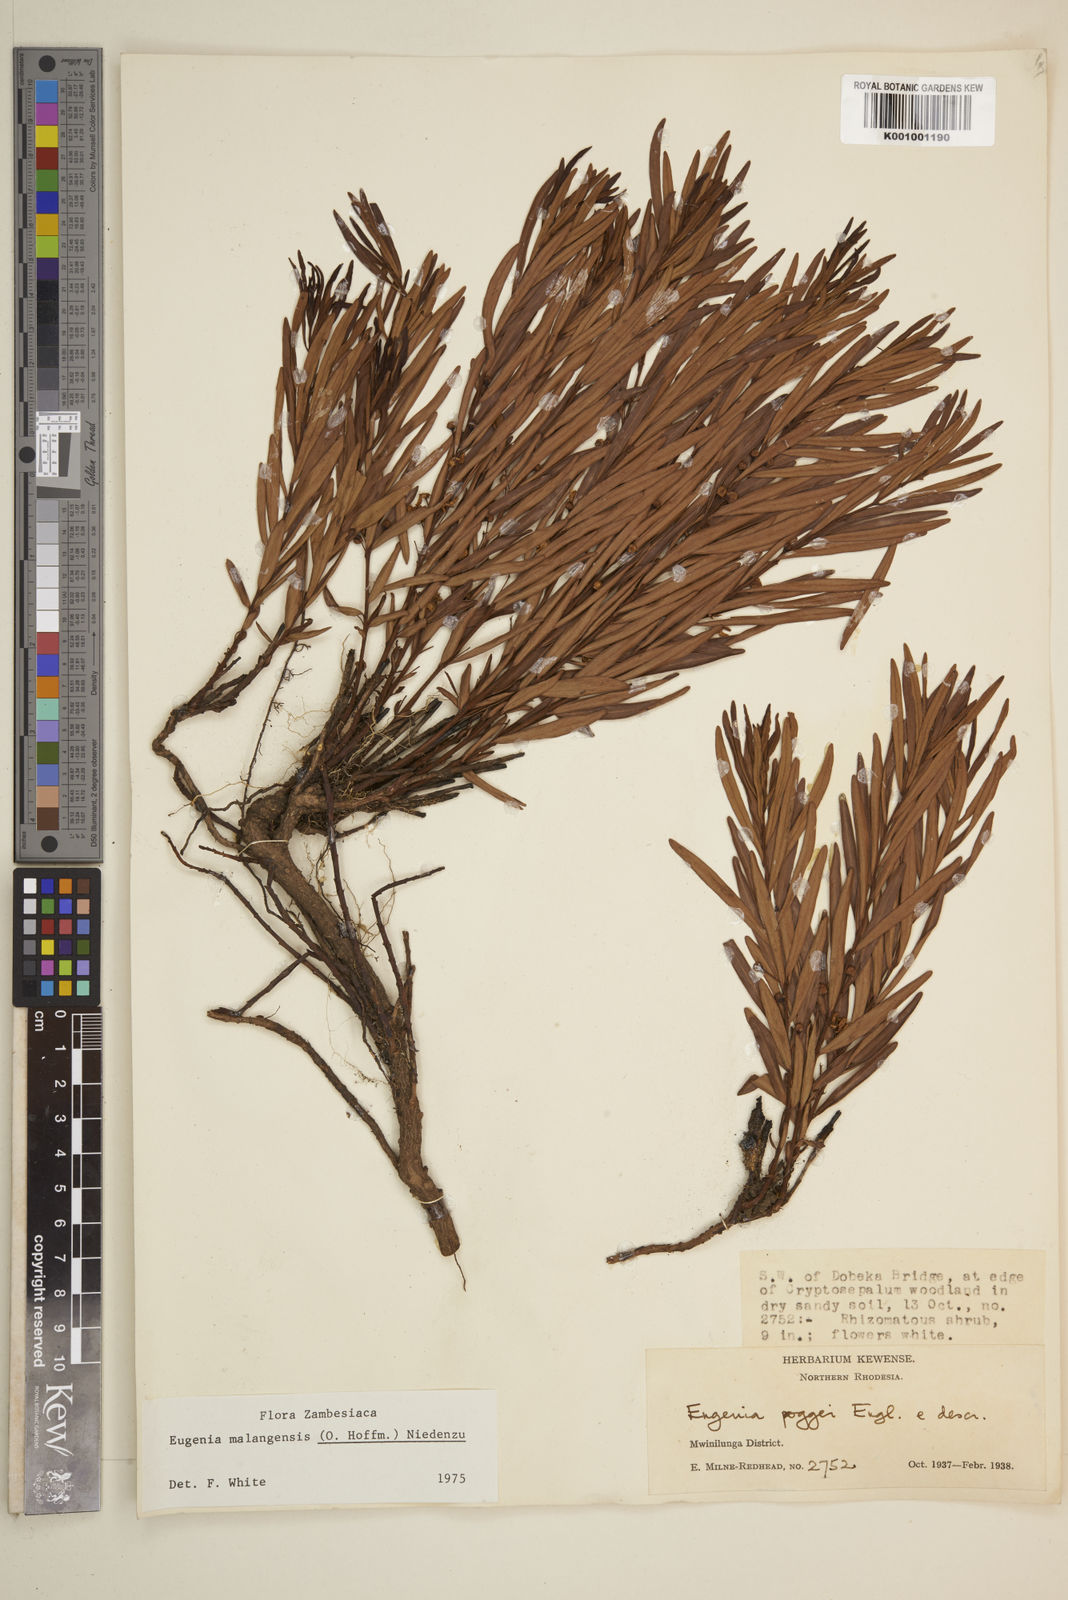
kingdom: Plantae
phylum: Tracheophyta
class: Magnoliopsida
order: Myrtales
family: Myrtaceae
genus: Eugenia
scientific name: Eugenia malangensis
